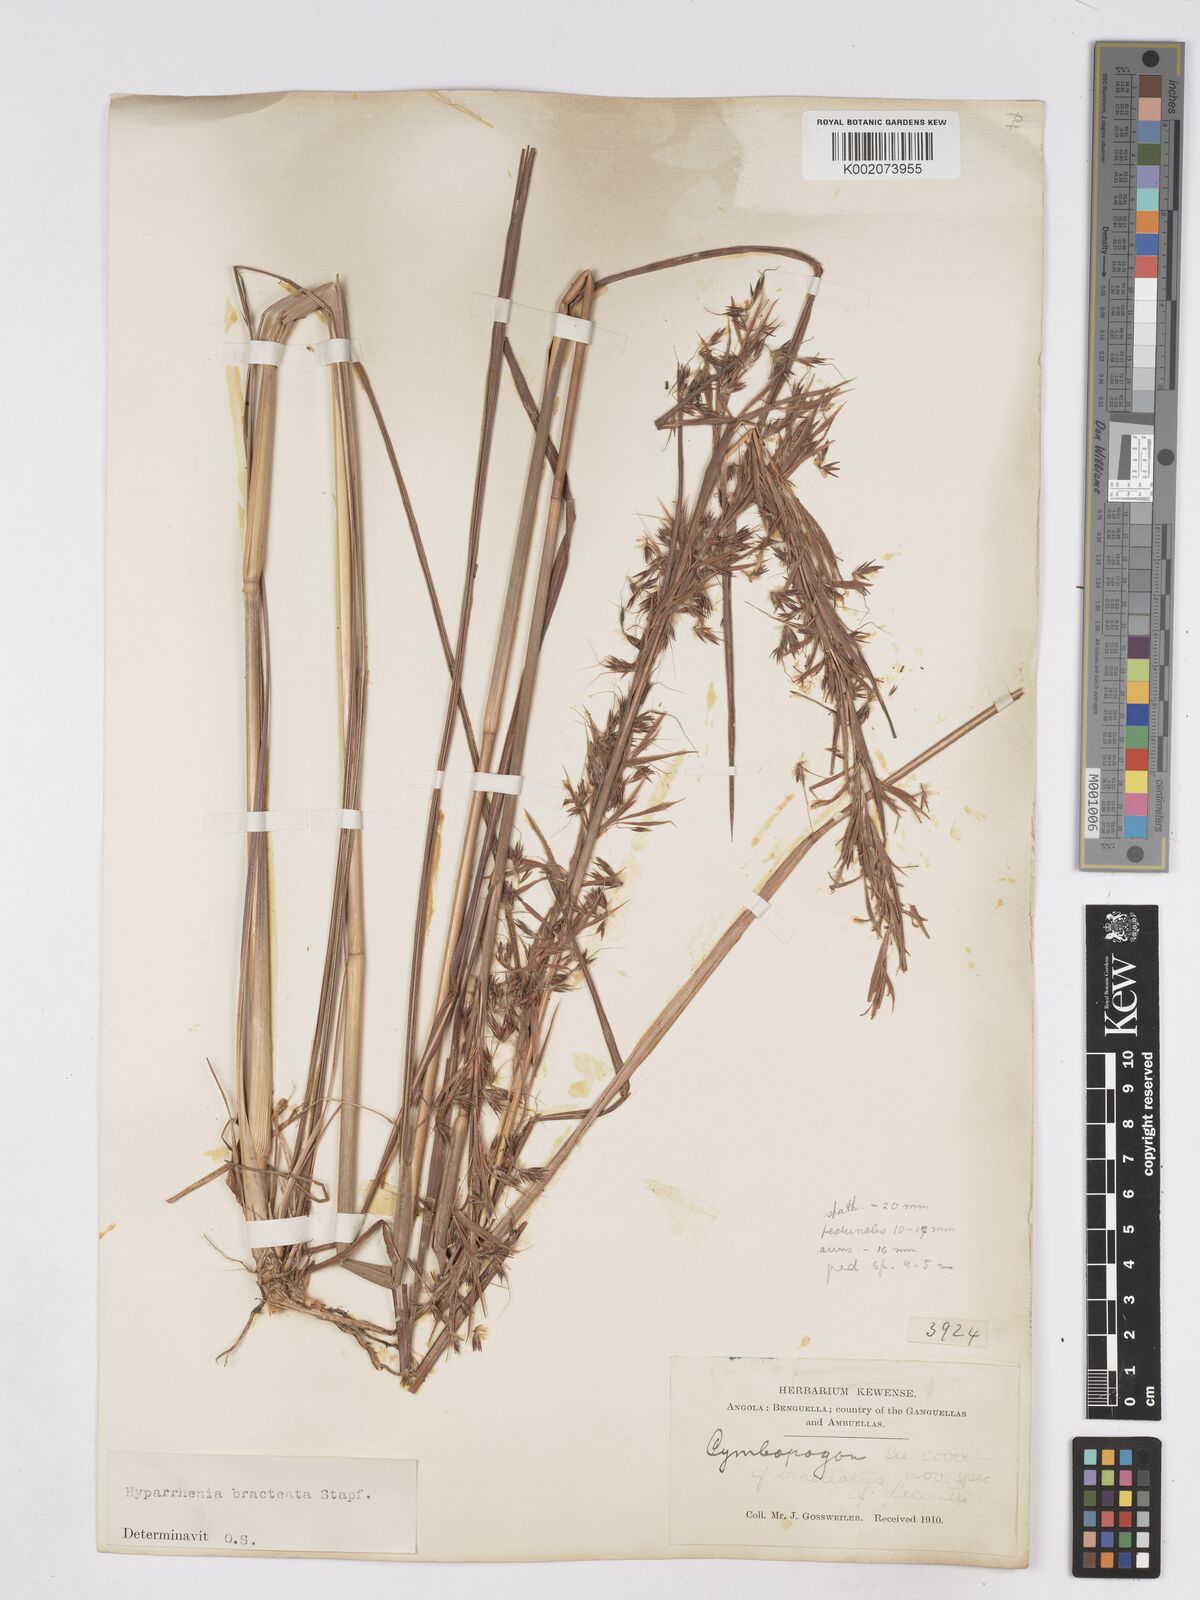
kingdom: Plantae
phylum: Tracheophyta
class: Liliopsida
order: Poales
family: Poaceae
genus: Hyparrhenia
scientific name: Hyparrhenia bracteata
